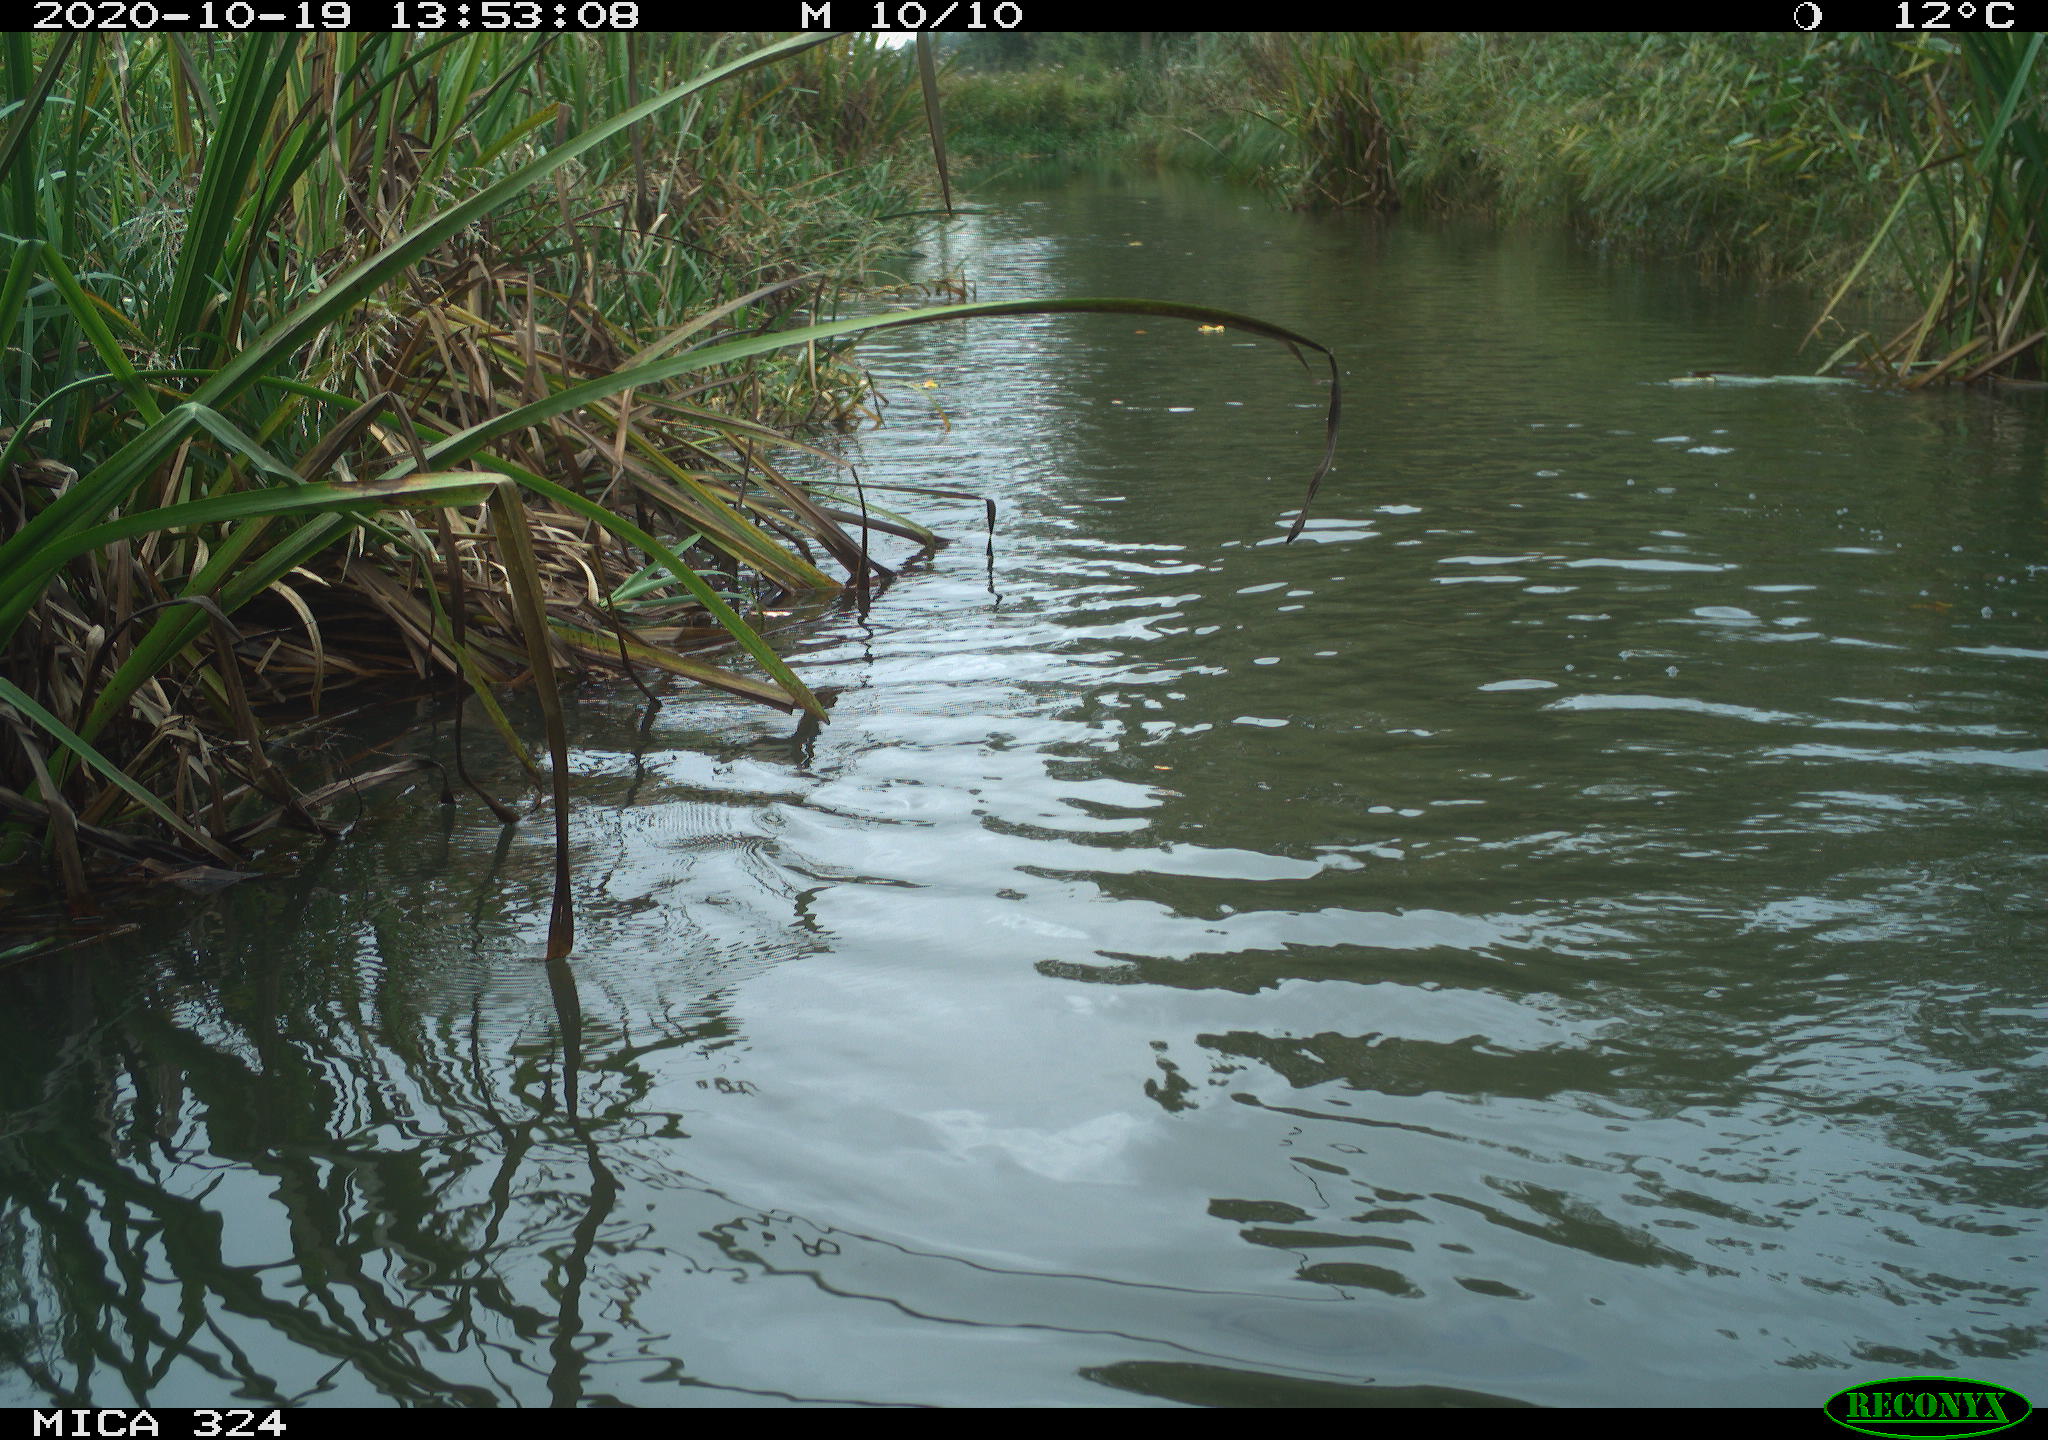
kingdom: Animalia
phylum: Chordata
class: Aves
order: Gruiformes
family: Rallidae
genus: Fulica
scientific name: Fulica atra
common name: Eurasian coot
